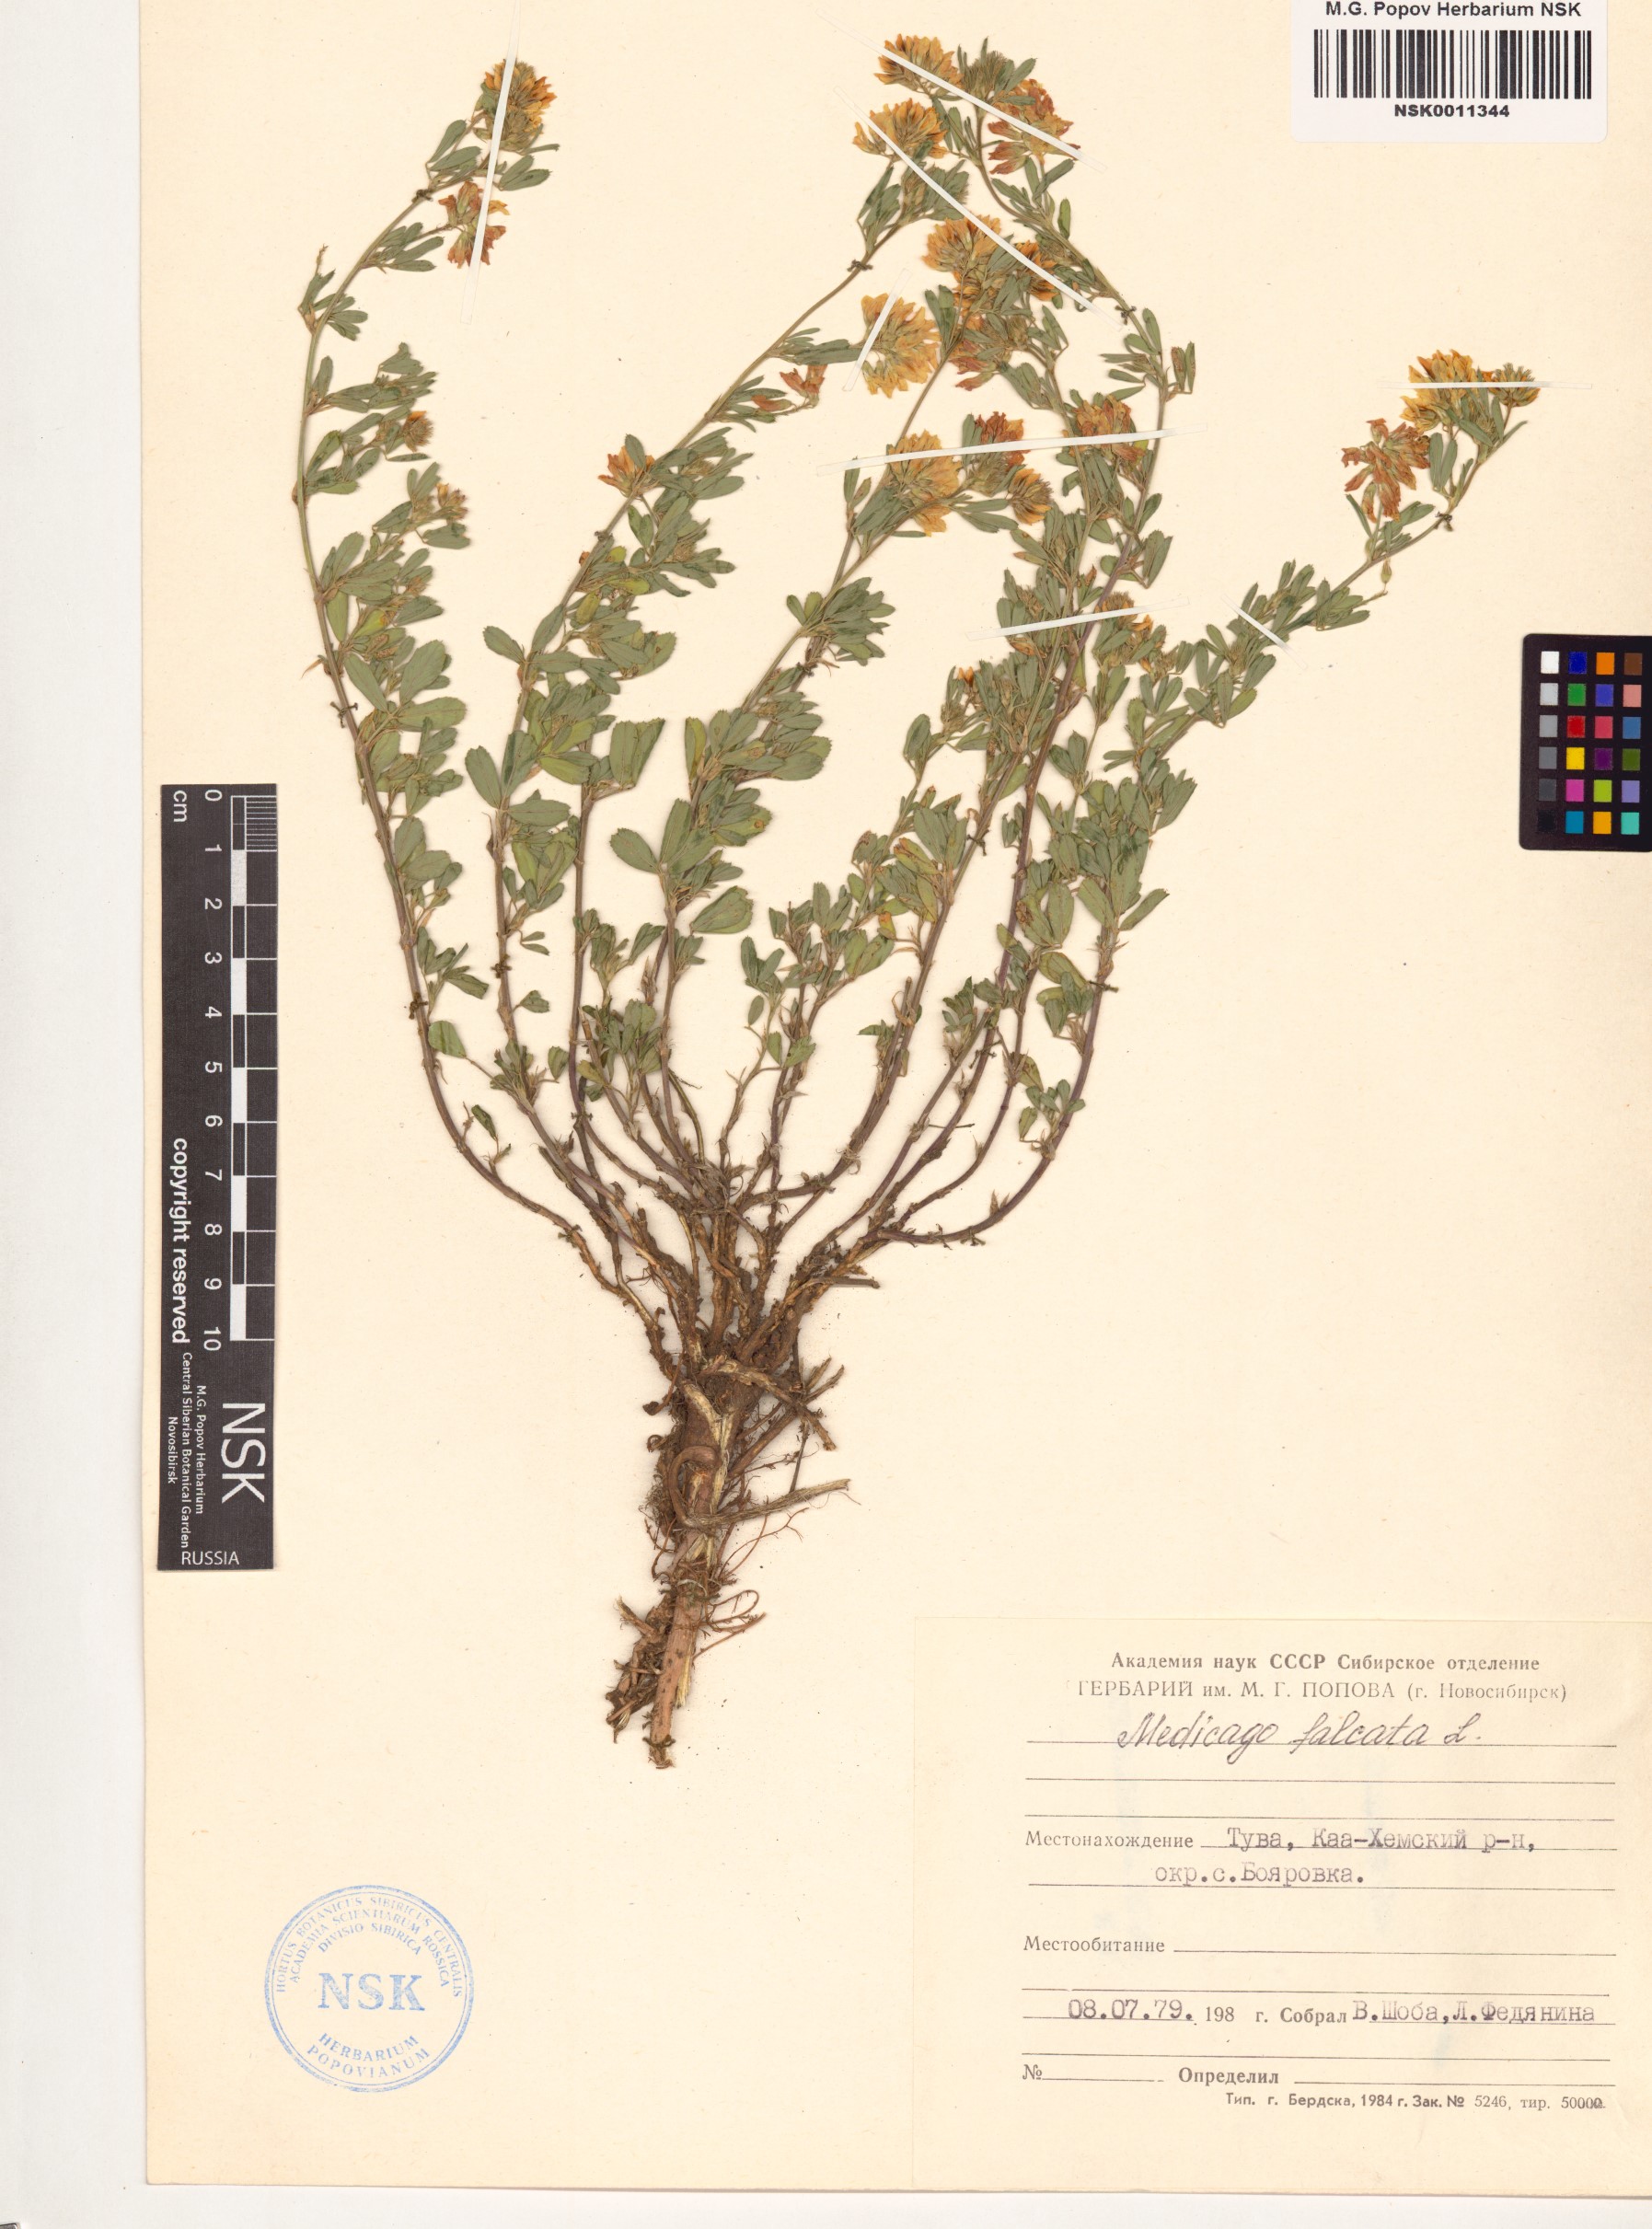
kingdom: Plantae
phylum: Tracheophyta
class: Magnoliopsida
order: Fabales
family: Fabaceae
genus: Medicago
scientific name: Medicago falcata
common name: Sickle medick
